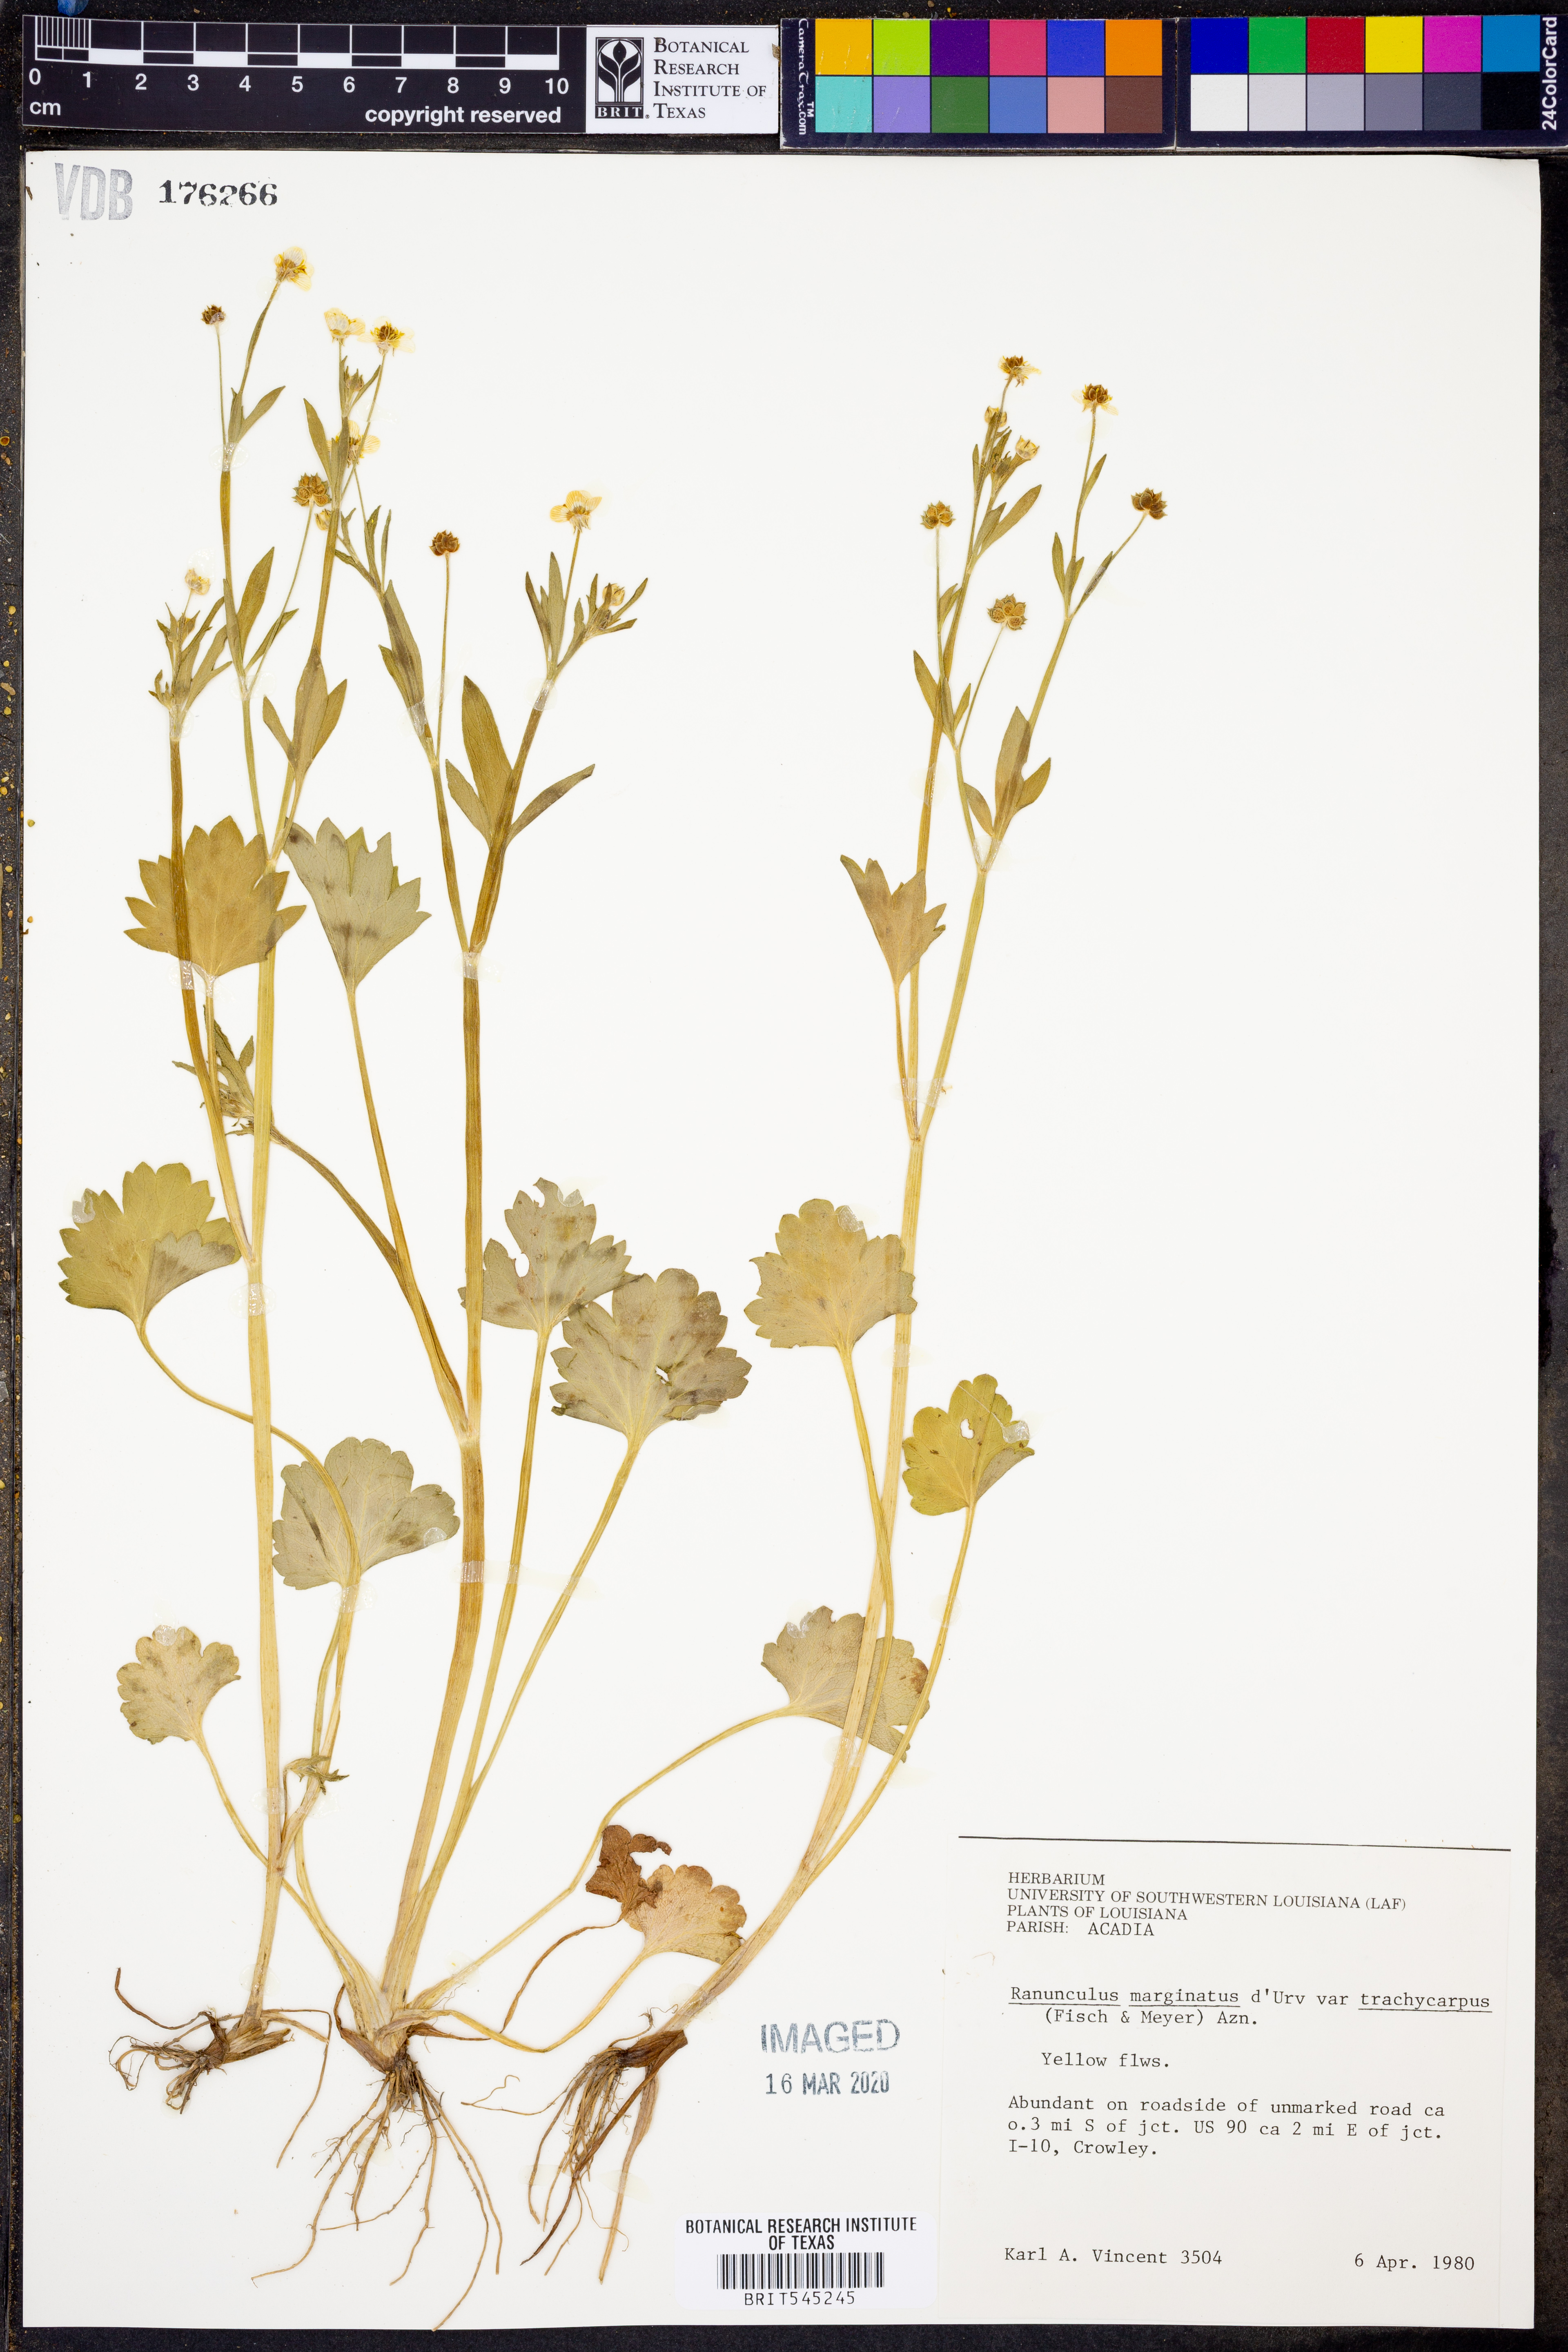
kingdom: Plantae
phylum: Tracheophyta
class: Magnoliopsida
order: Ranunculales
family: Ranunculaceae
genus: Ranunculus
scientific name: Ranunculus marginatus
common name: St. martin's buttercup
